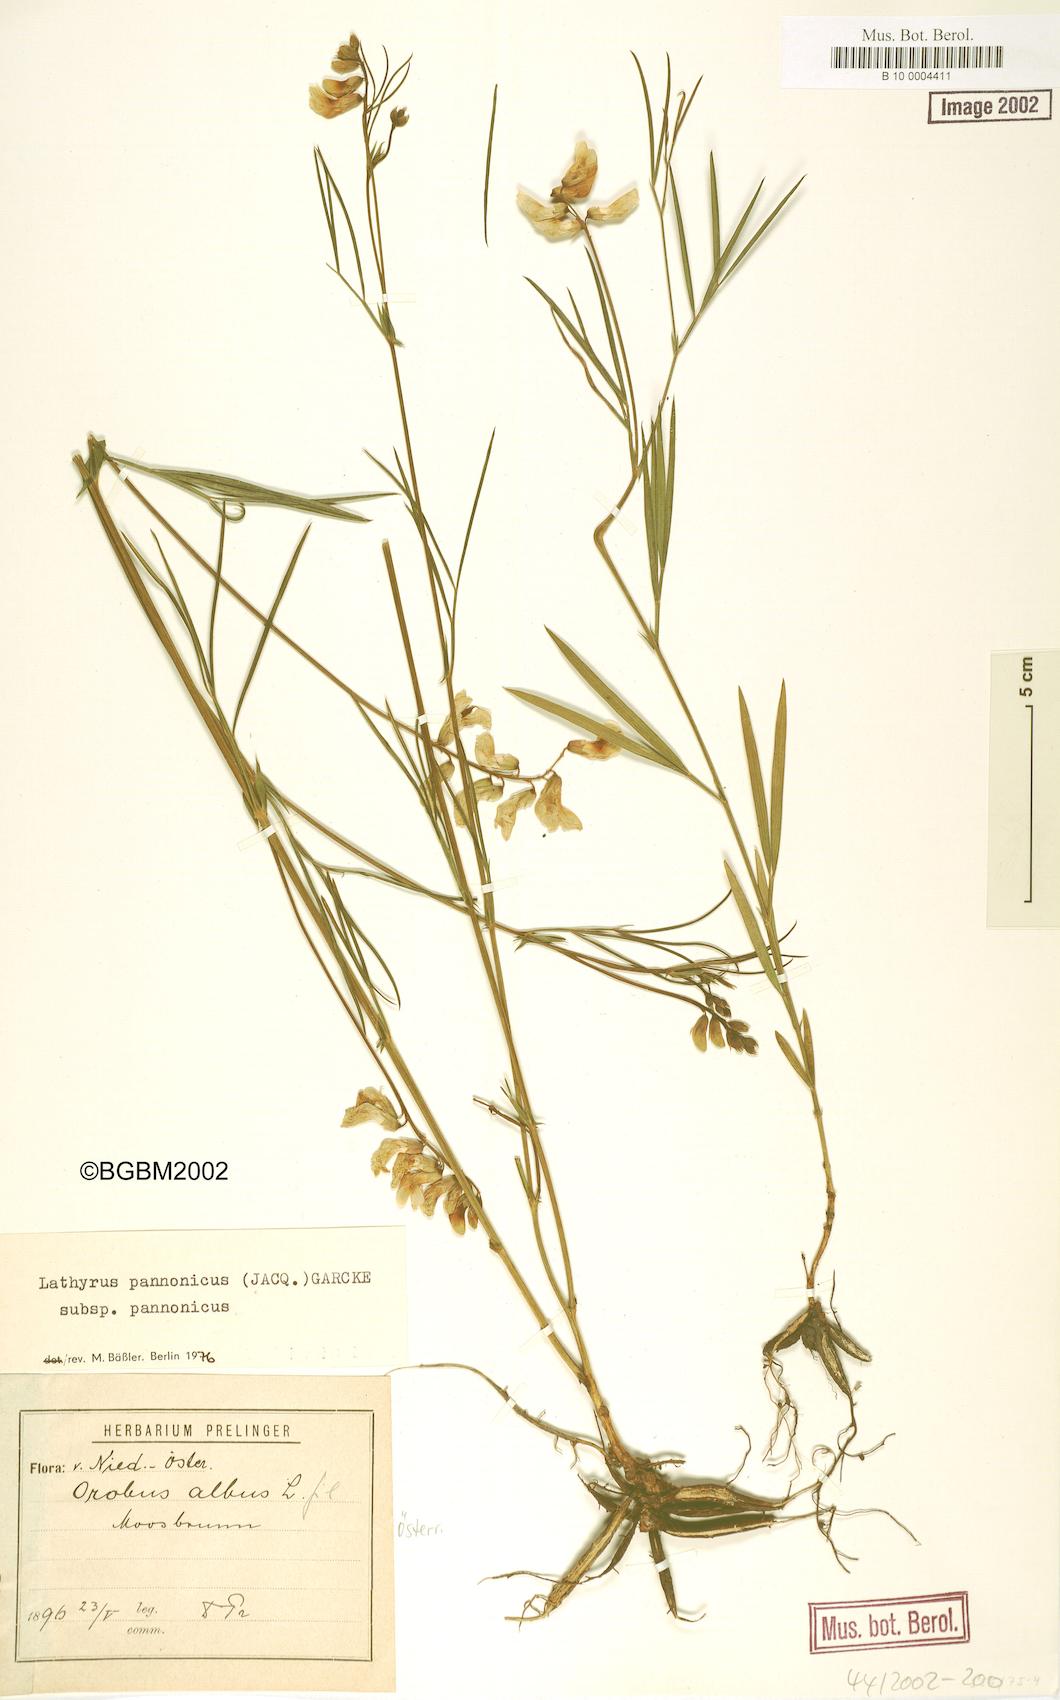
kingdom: Plantae
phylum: Tracheophyta
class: Magnoliopsida
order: Fabales
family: Fabaceae
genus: Lathyrus
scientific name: Lathyrus pannonicus
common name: Pea
